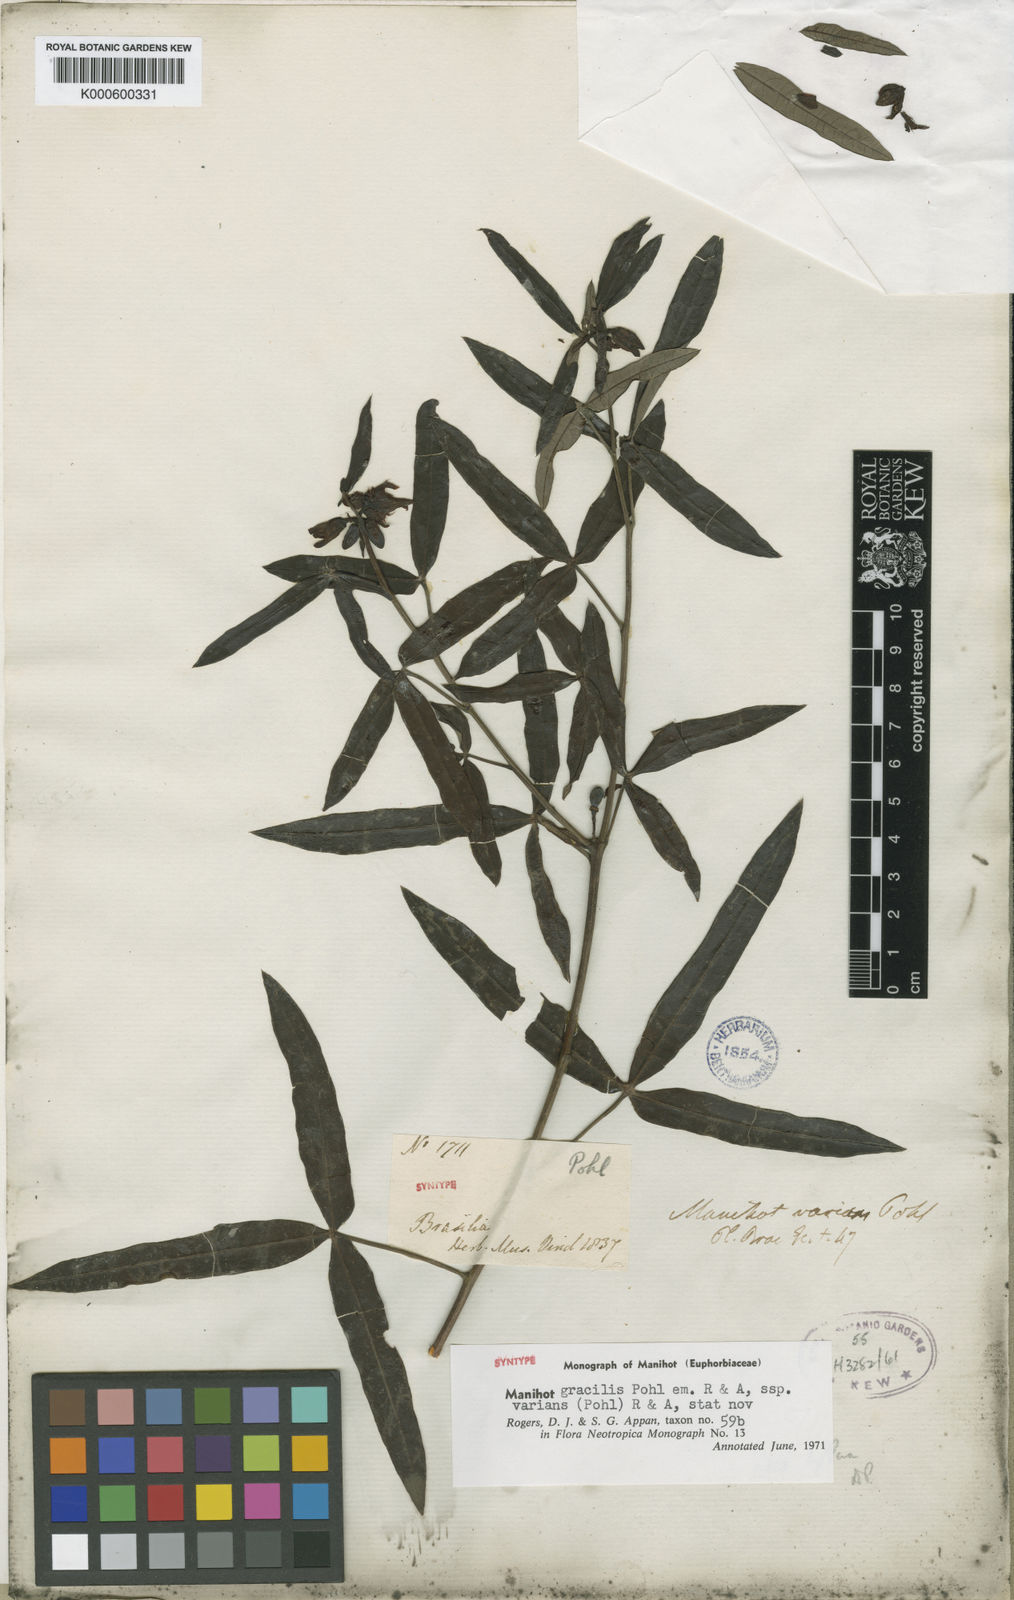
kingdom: Plantae
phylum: Tracheophyta
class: Magnoliopsida
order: Malpighiales
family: Euphorbiaceae
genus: Manihot
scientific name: Manihot gracilis
